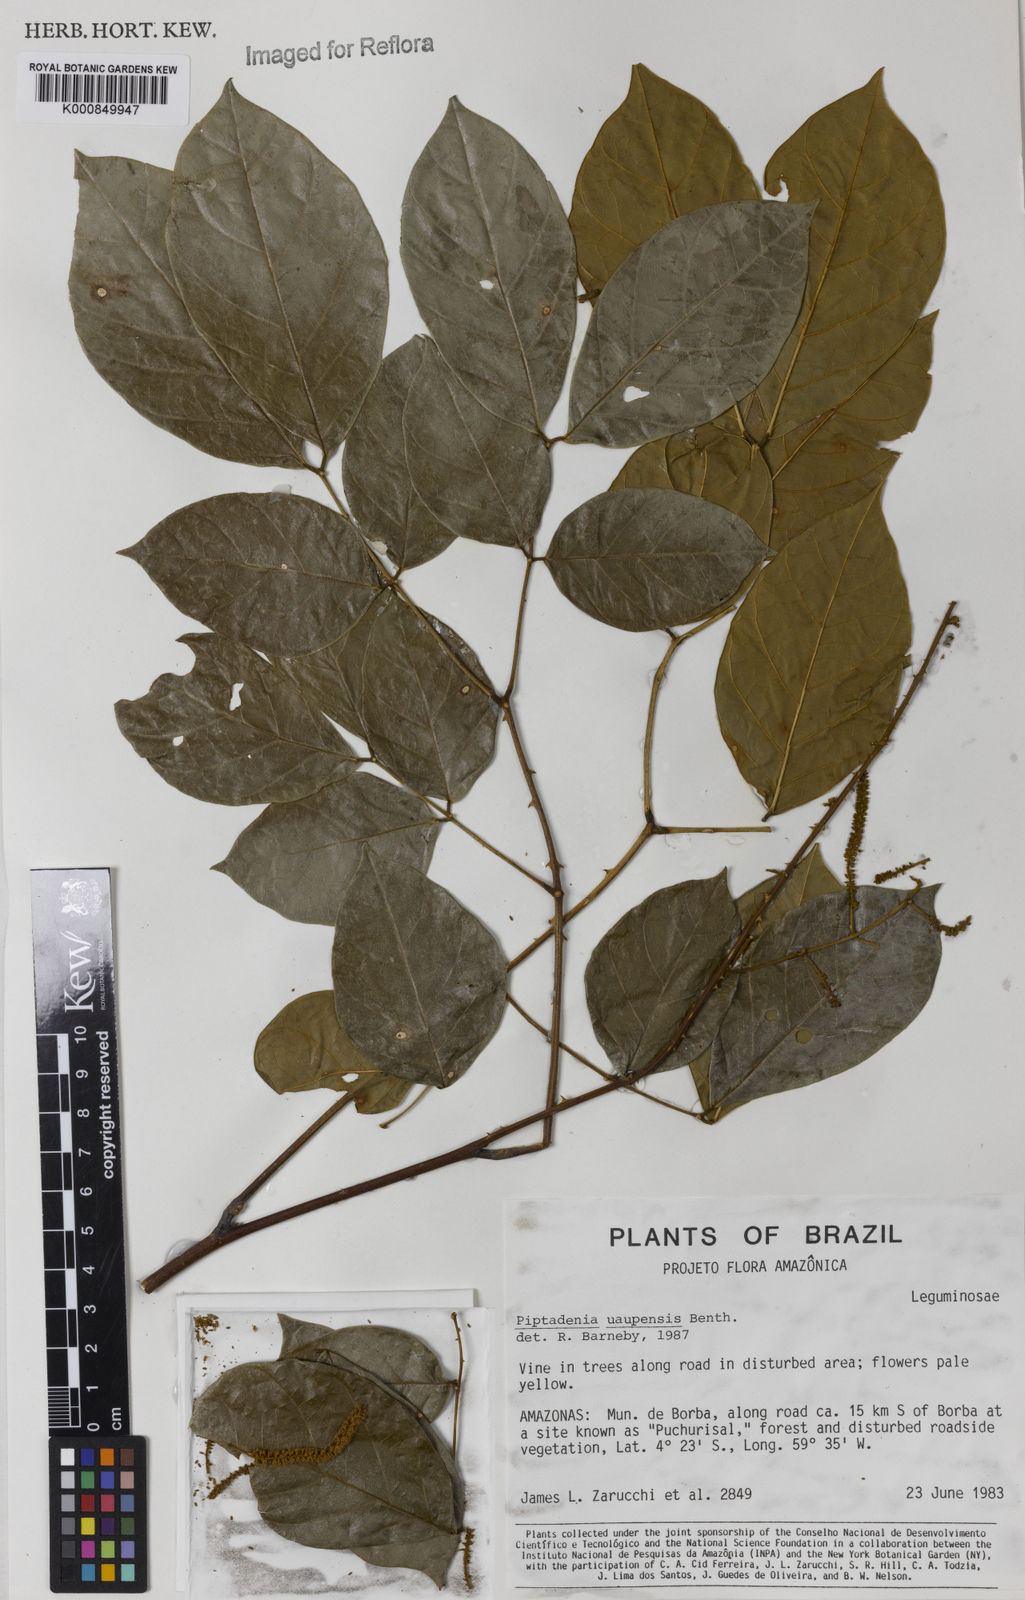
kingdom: Plantae
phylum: Tracheophyta
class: Magnoliopsida
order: Fabales
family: Fabaceae
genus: Piptadenia
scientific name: Piptadenia uaupensis
